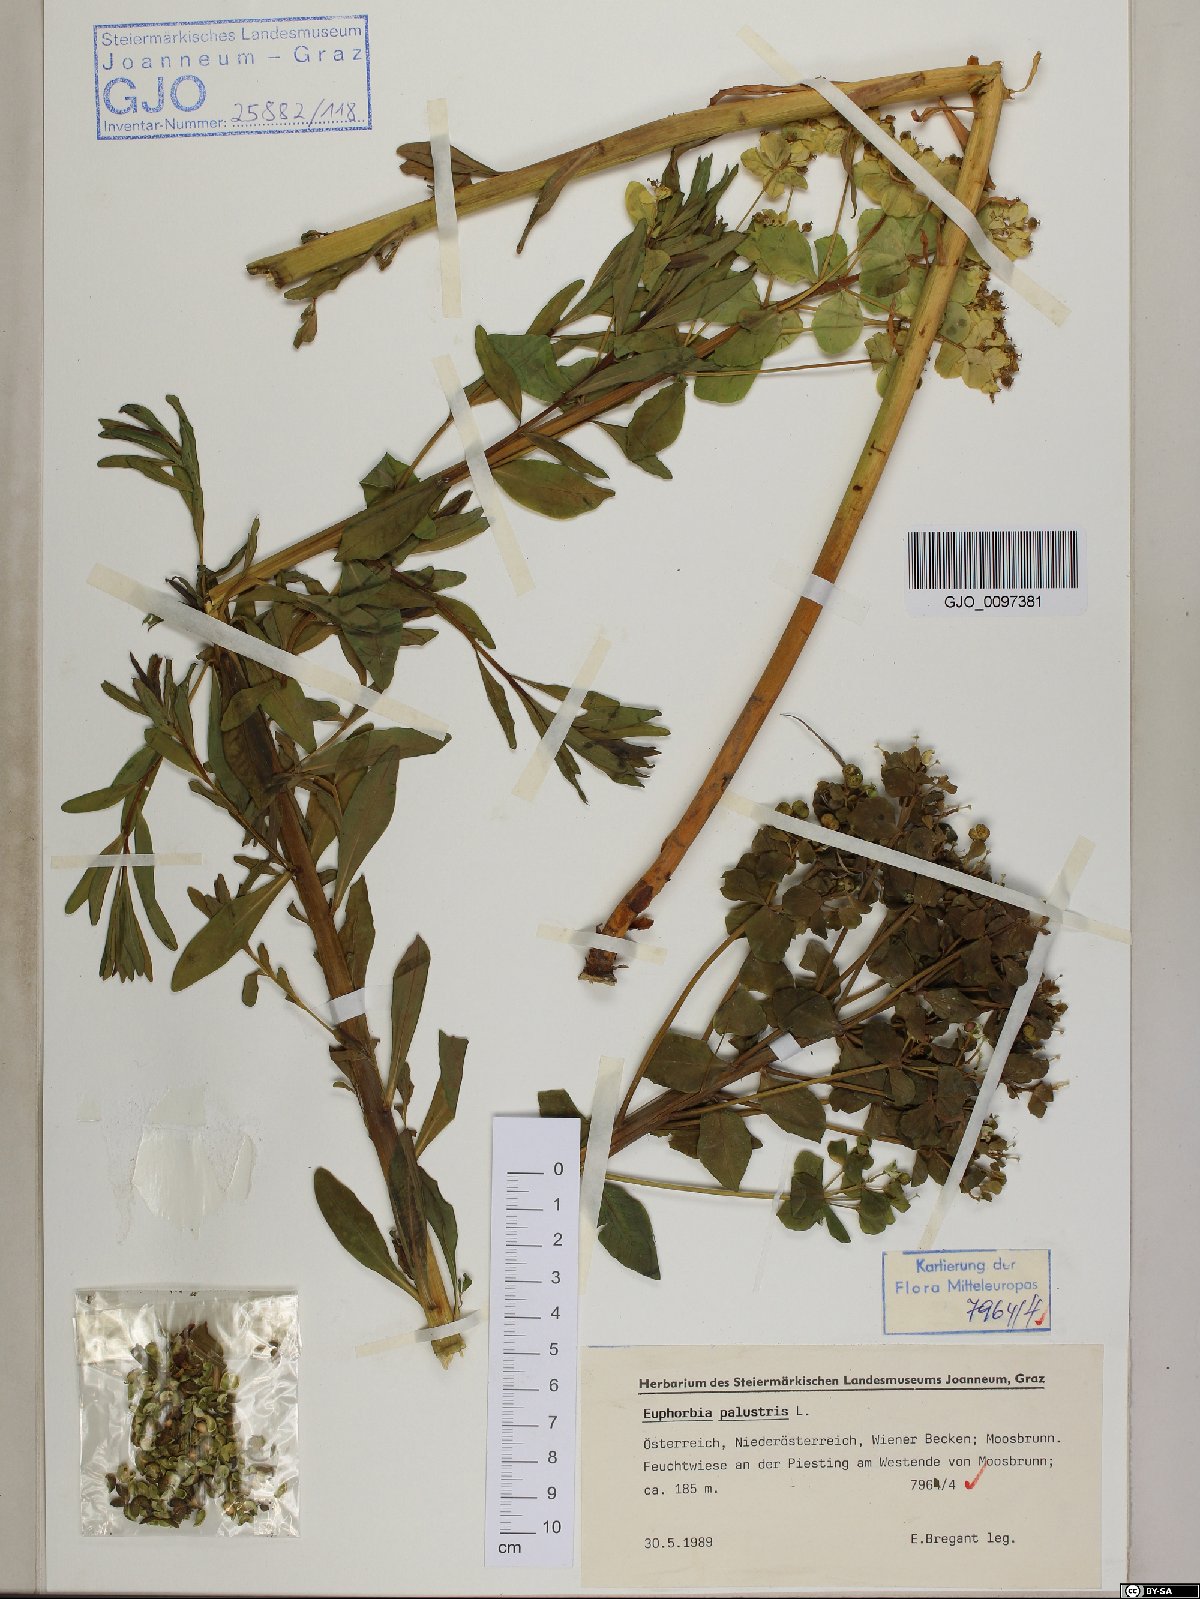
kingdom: Plantae
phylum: Tracheophyta
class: Magnoliopsida
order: Malpighiales
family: Euphorbiaceae
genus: Euphorbia
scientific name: Euphorbia palustris
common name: Marsh spurge
